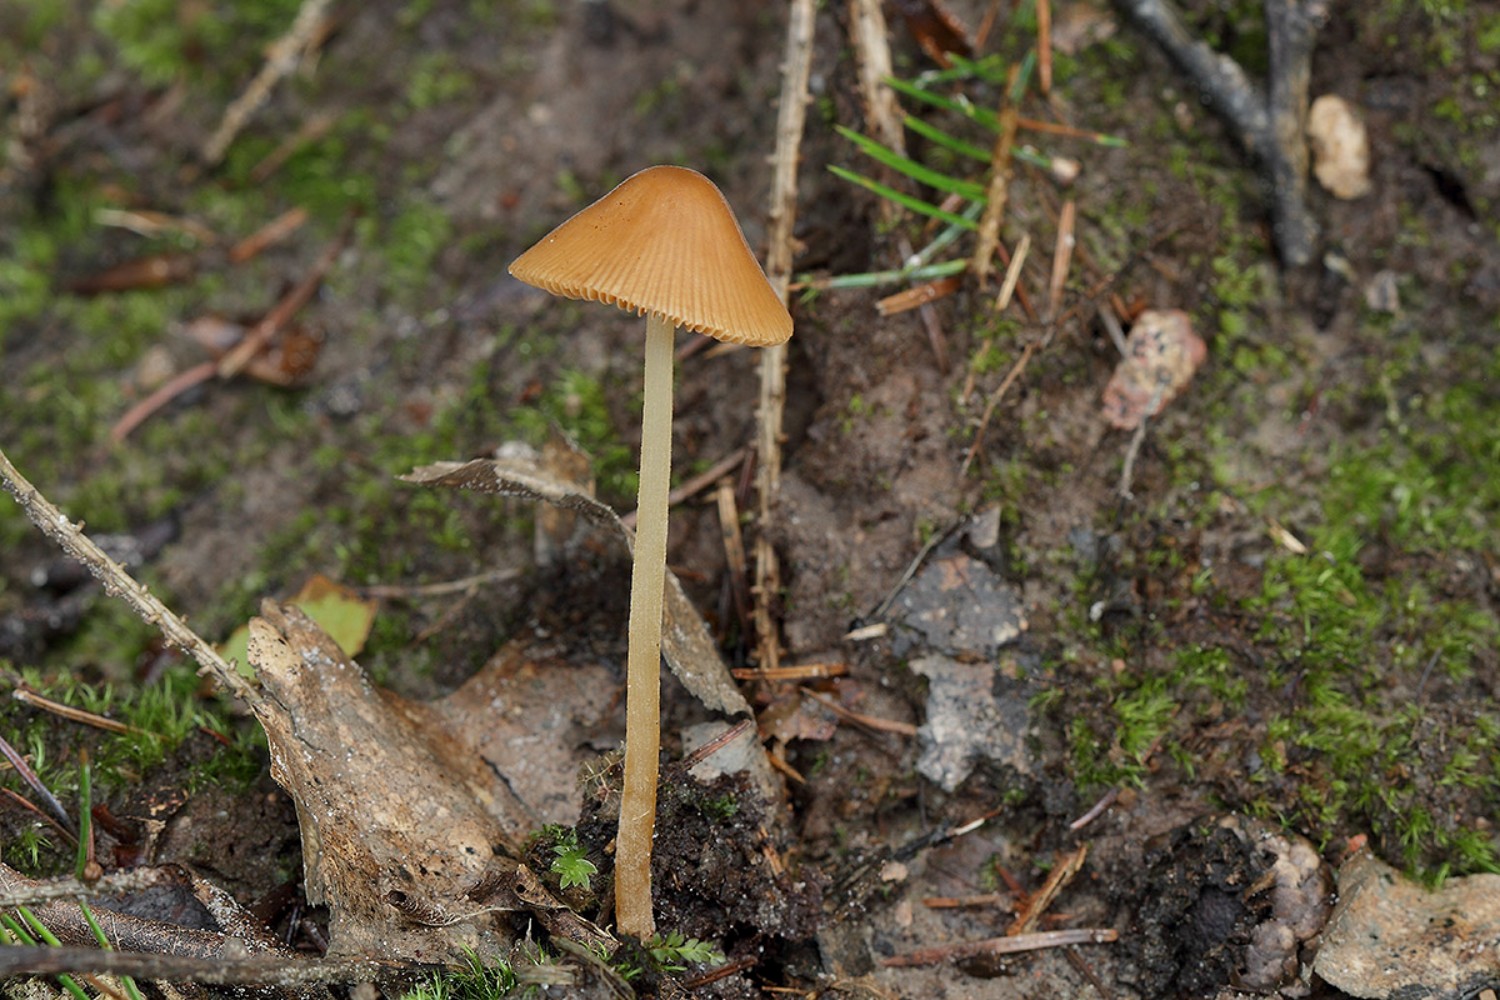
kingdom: Fungi
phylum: Basidiomycota
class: Agaricomycetes
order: Agaricales
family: Bolbitiaceae
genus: Conocybe
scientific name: Conocybe subpubescens
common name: krat-keglehat
